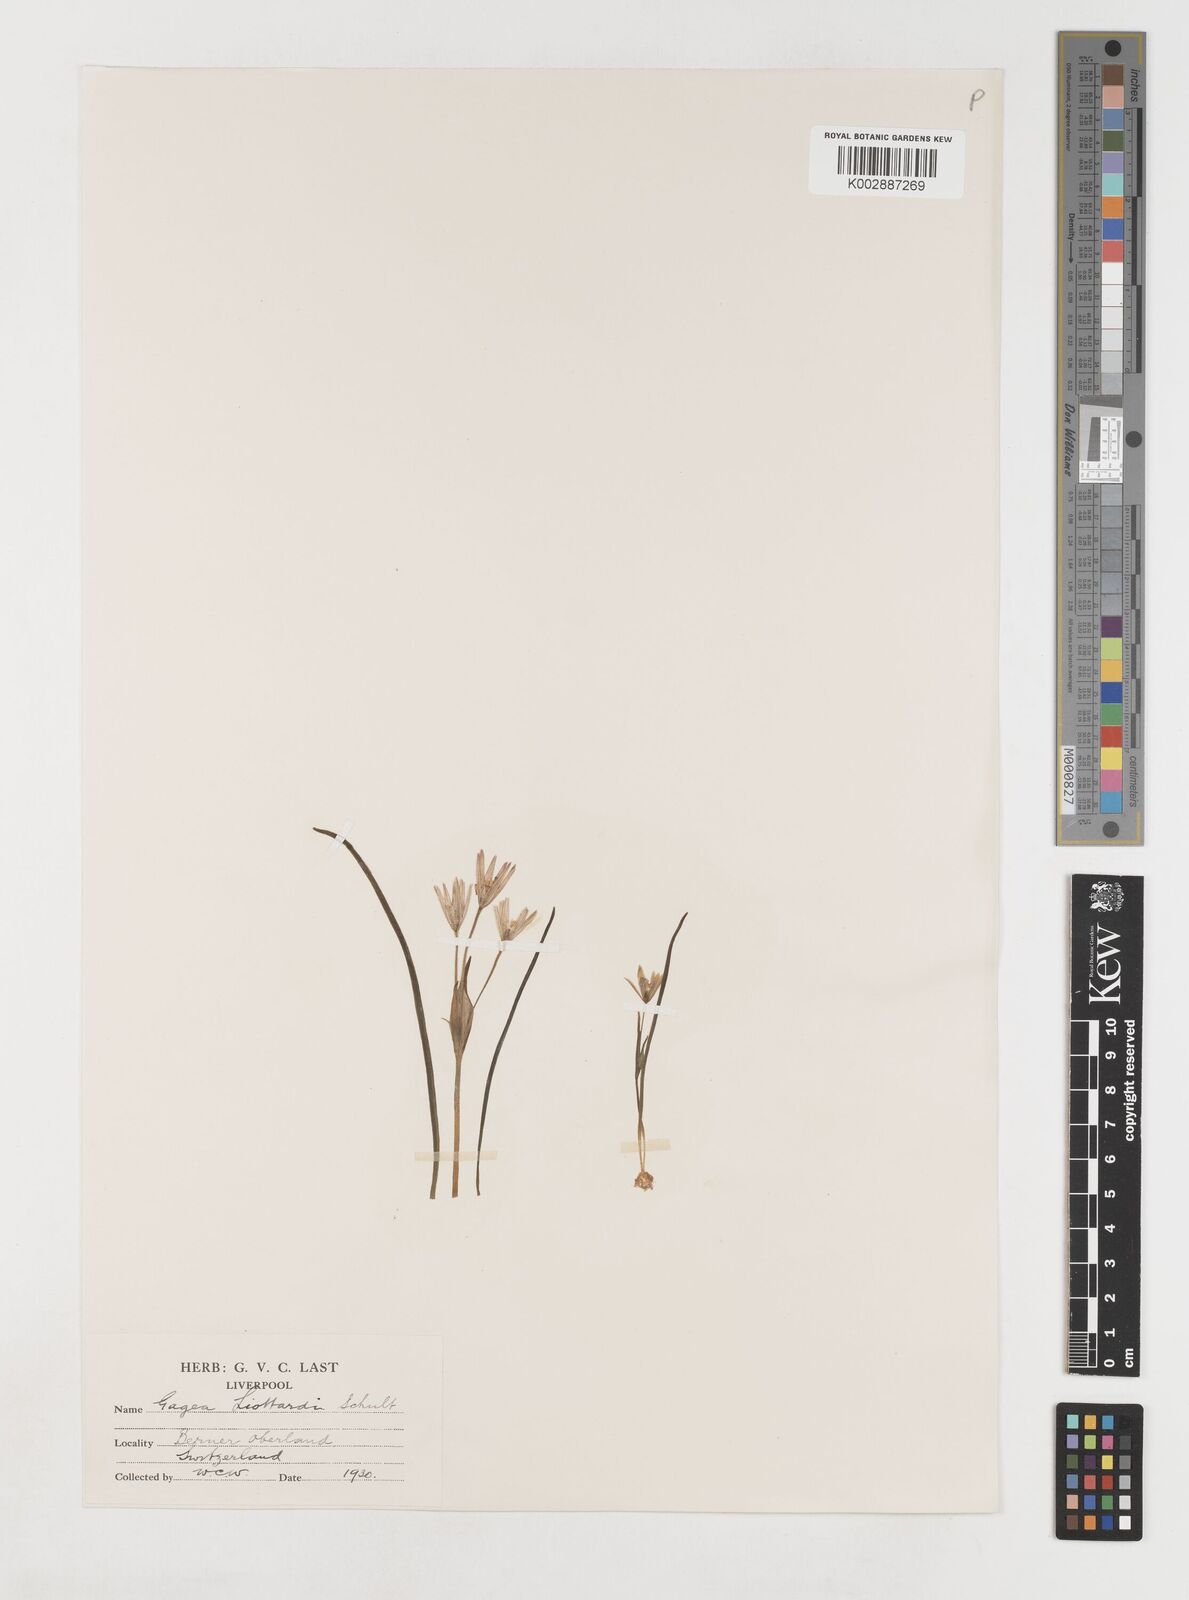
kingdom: Plantae
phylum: Tracheophyta
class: Liliopsida
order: Liliales
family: Liliaceae
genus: Gagea
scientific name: Gagea bohemica
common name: Early star-of-bethlehem
